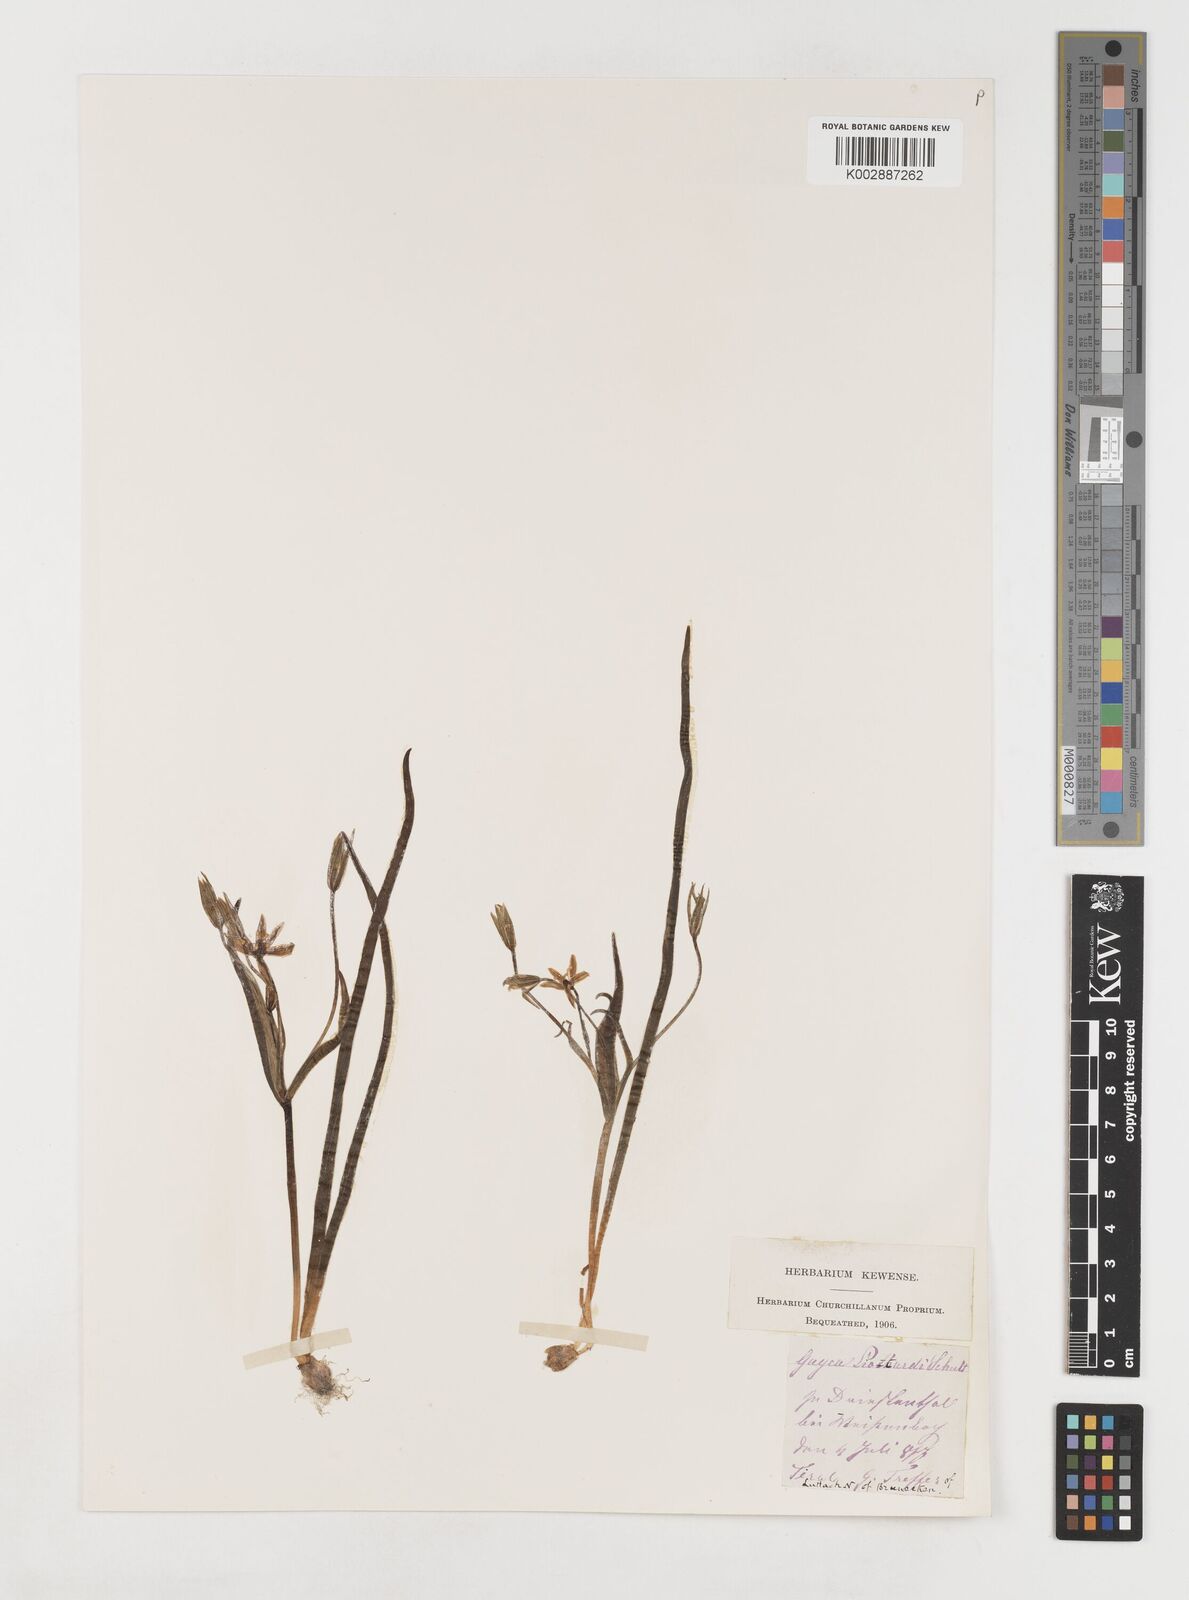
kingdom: Plantae
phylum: Tracheophyta
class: Liliopsida
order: Liliales
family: Liliaceae
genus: Gagea
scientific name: Gagea bohemica
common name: Early star-of-bethlehem
